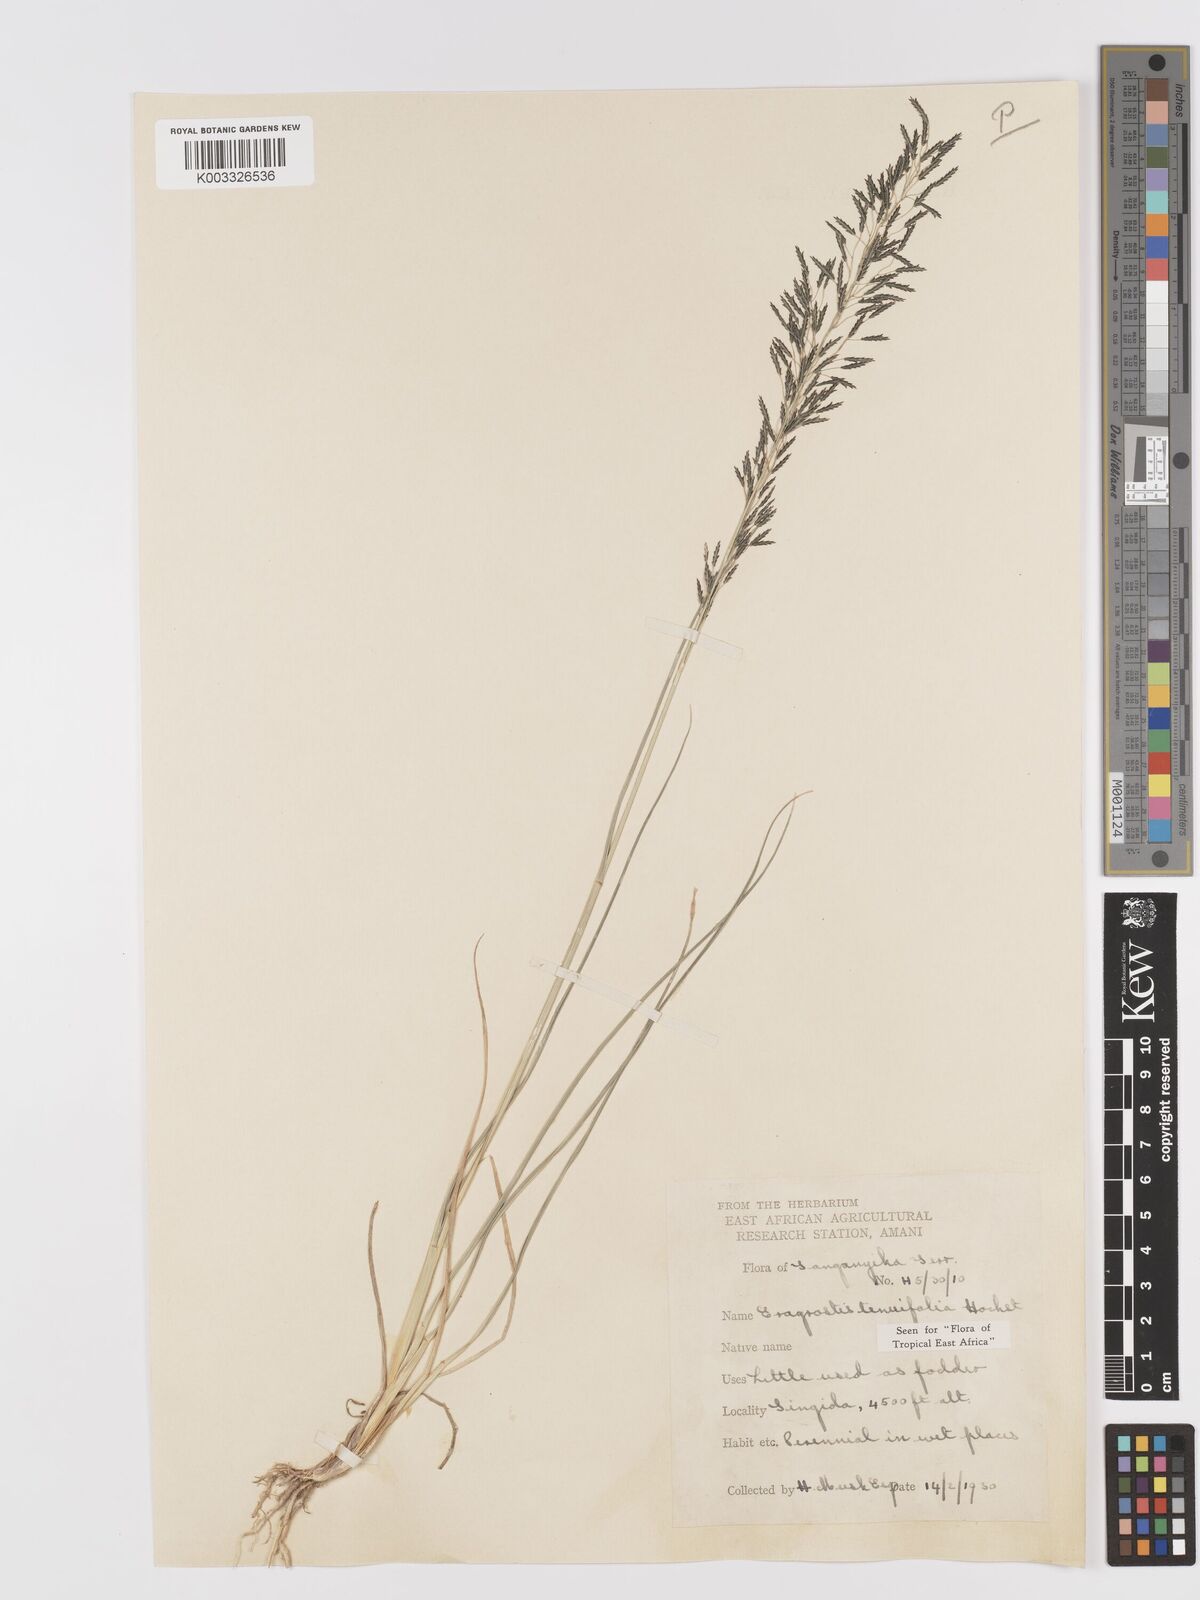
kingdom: Plantae
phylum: Tracheophyta
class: Liliopsida
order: Poales
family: Poaceae
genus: Eragrostis
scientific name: Eragrostis tenuifolia
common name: Elastic grass
